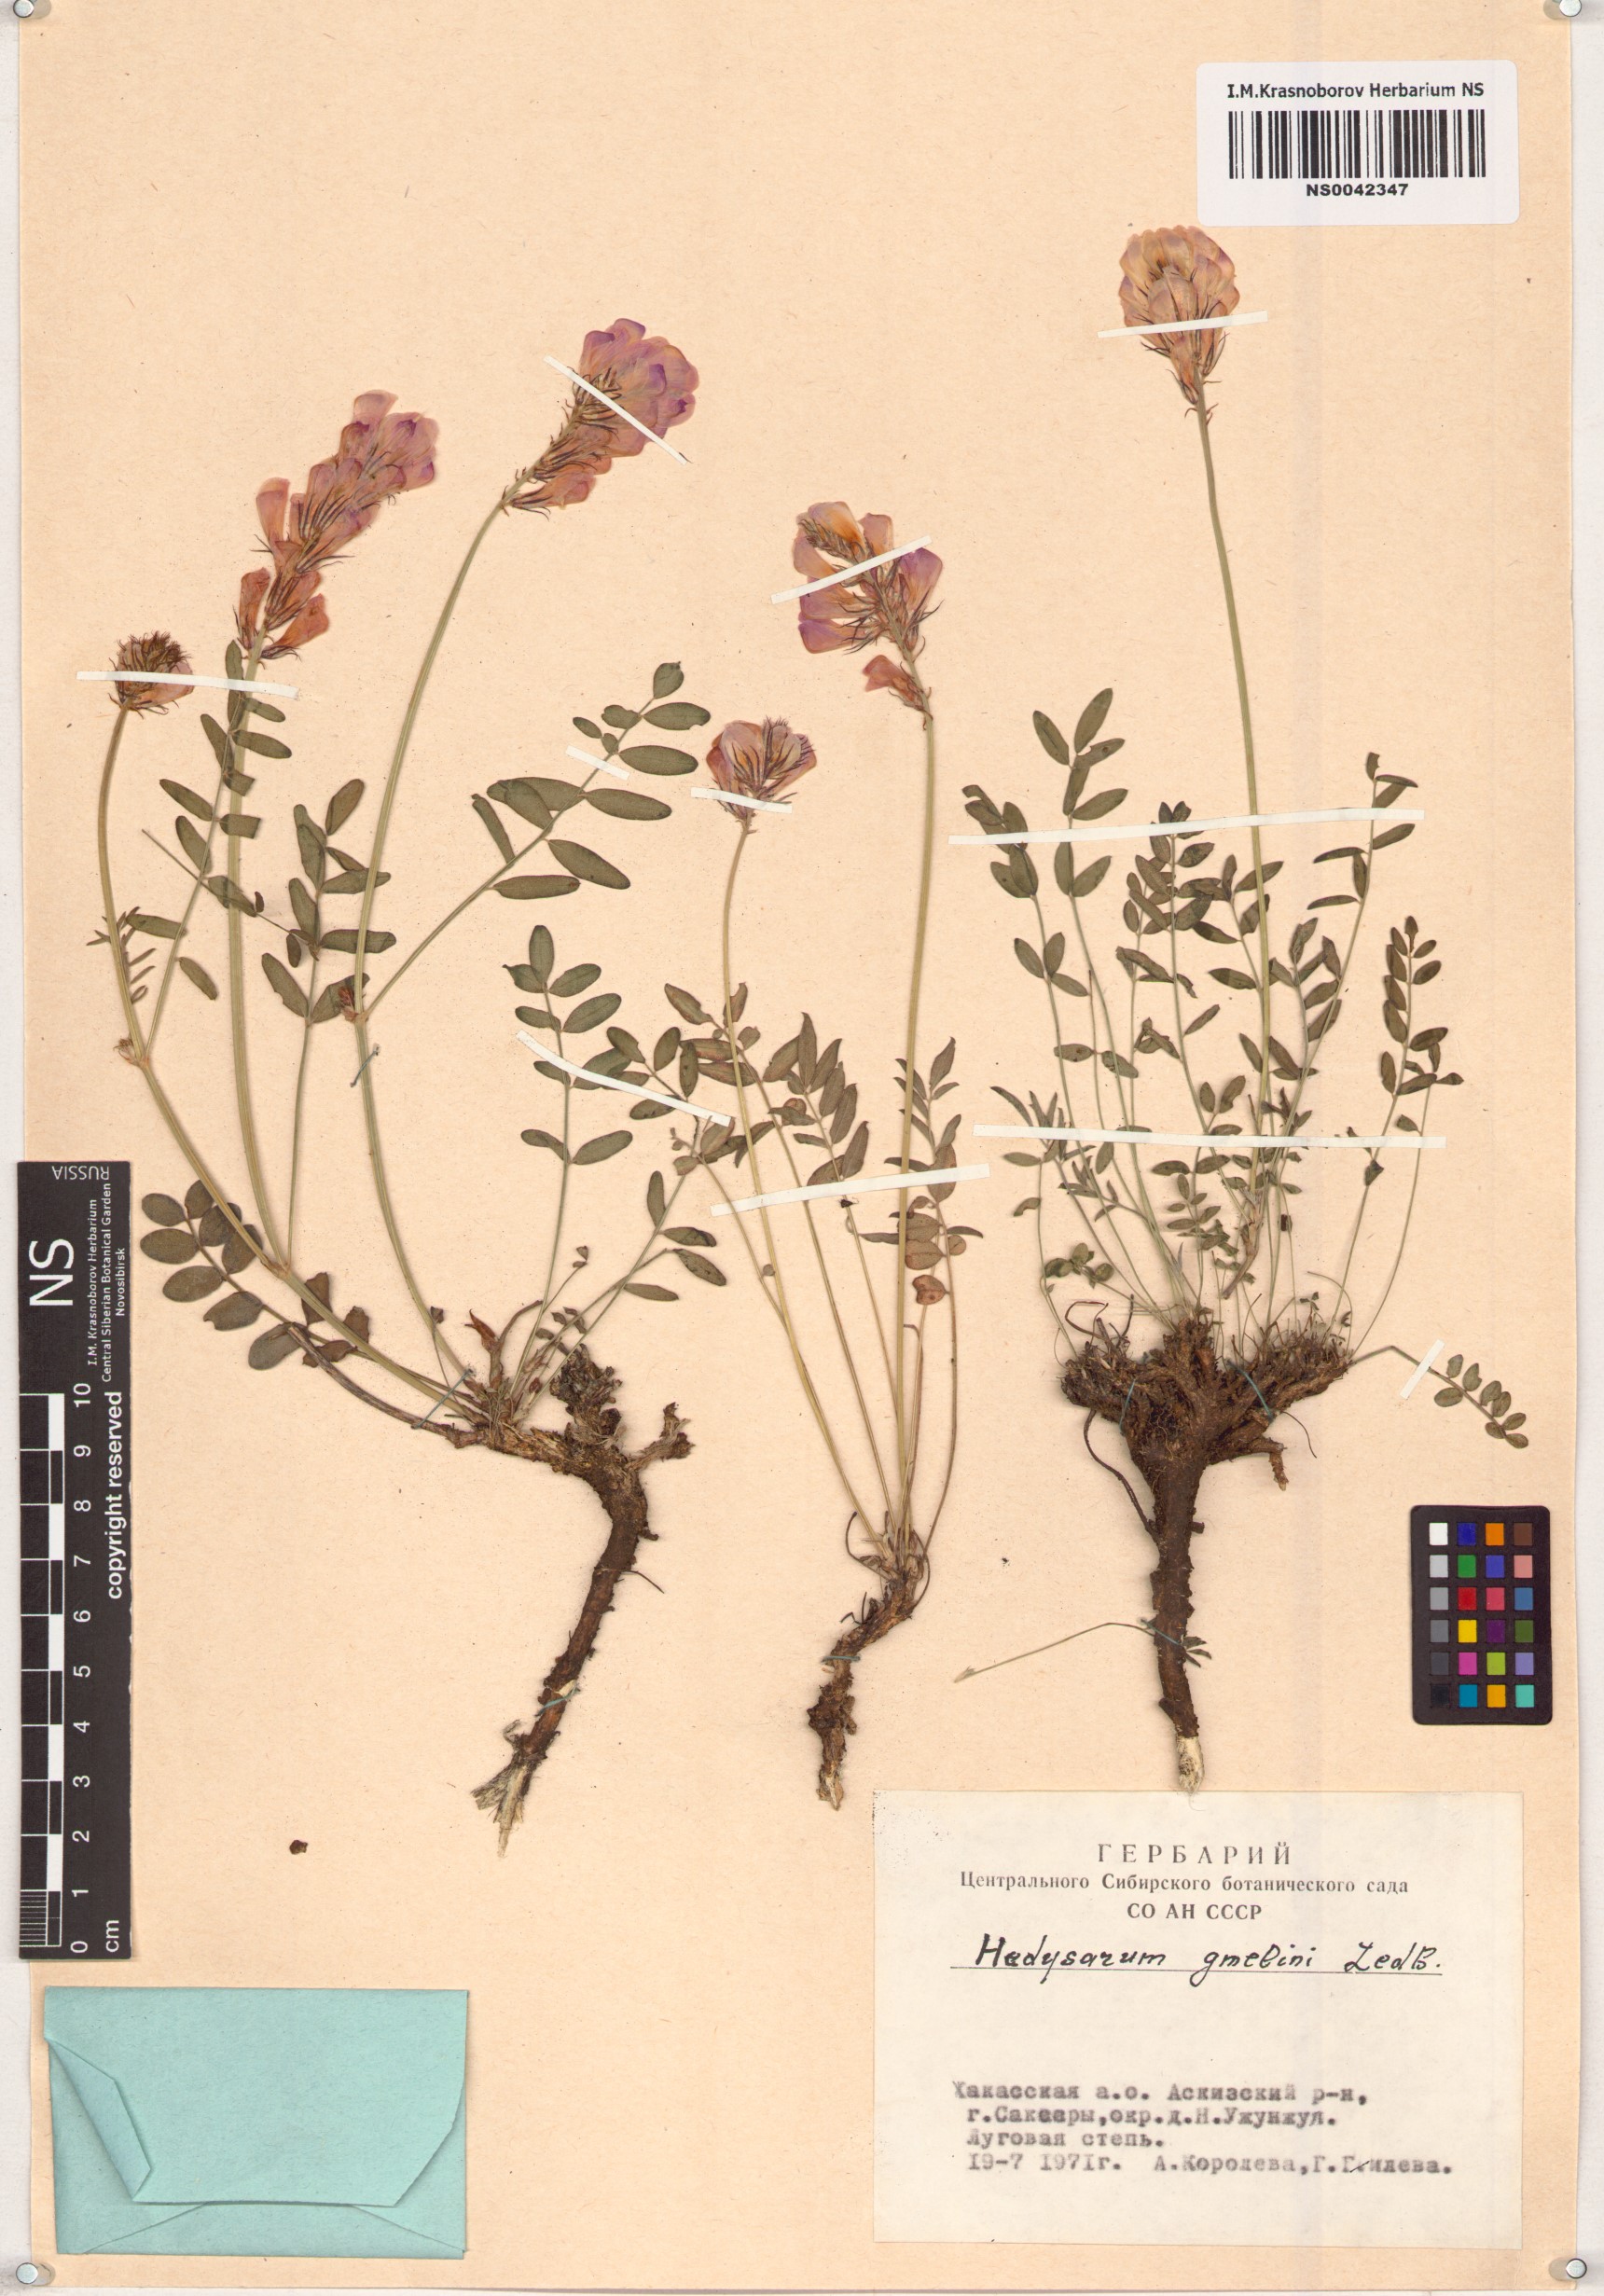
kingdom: Plantae
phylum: Tracheophyta
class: Magnoliopsida
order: Fabales
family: Fabaceae
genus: Hedysarum
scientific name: Hedysarum gmelinii
